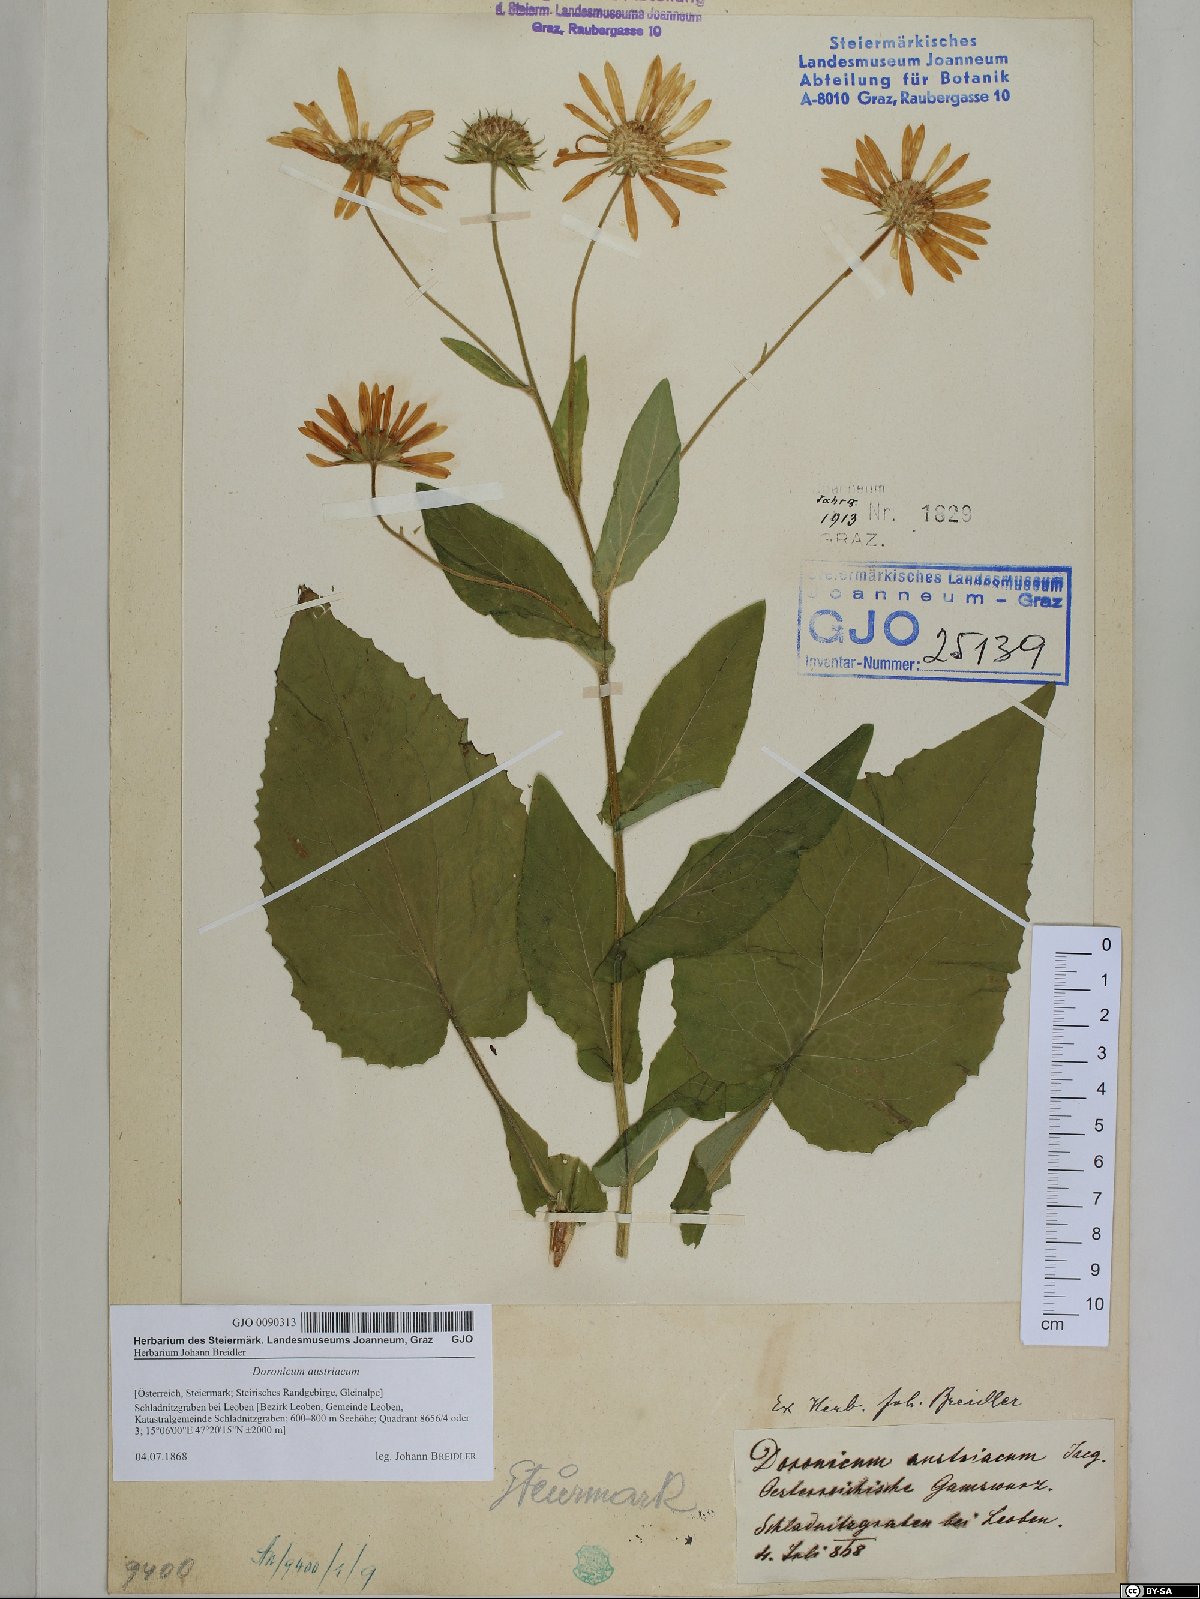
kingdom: Plantae
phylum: Tracheophyta
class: Magnoliopsida
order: Asterales
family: Asteraceae
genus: Doronicum
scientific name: Doronicum austriacum
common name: Austrian leopard's-bane
